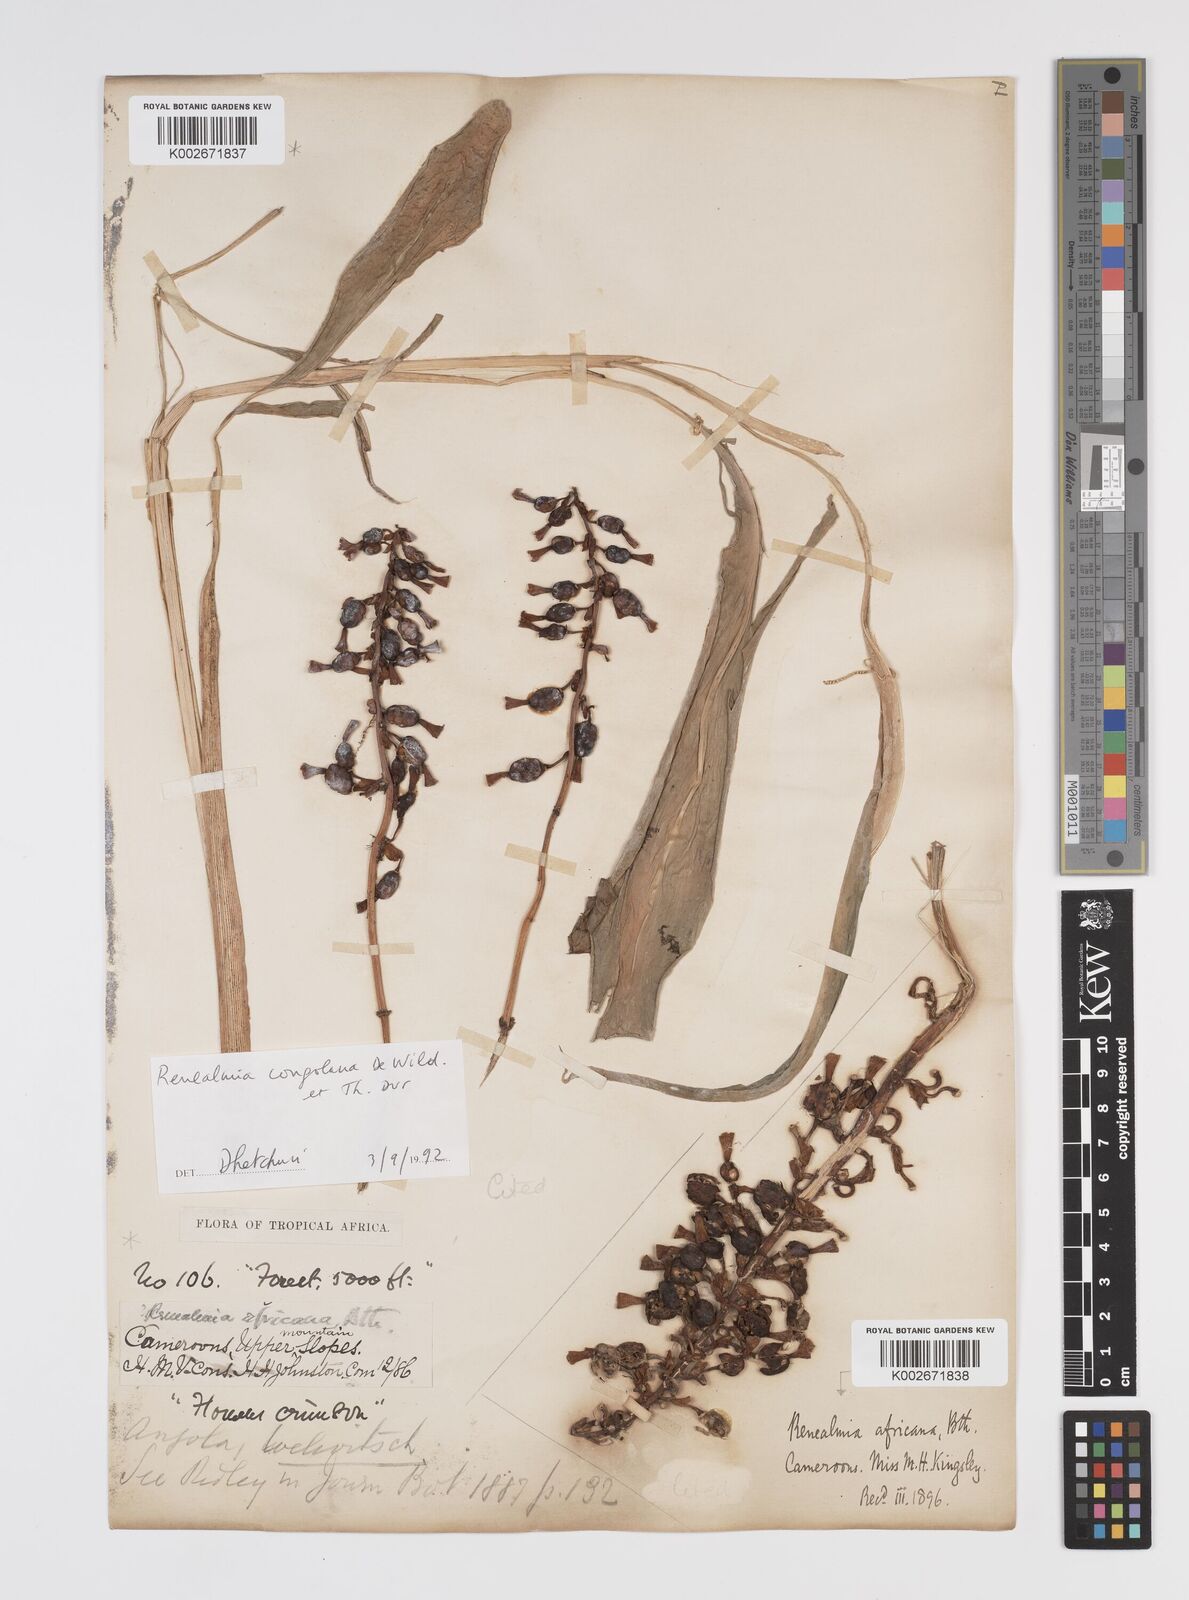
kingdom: Plantae
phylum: Tracheophyta
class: Liliopsida
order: Zingiberales
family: Zingiberaceae
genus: Renealmia
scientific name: Renealmia africana
